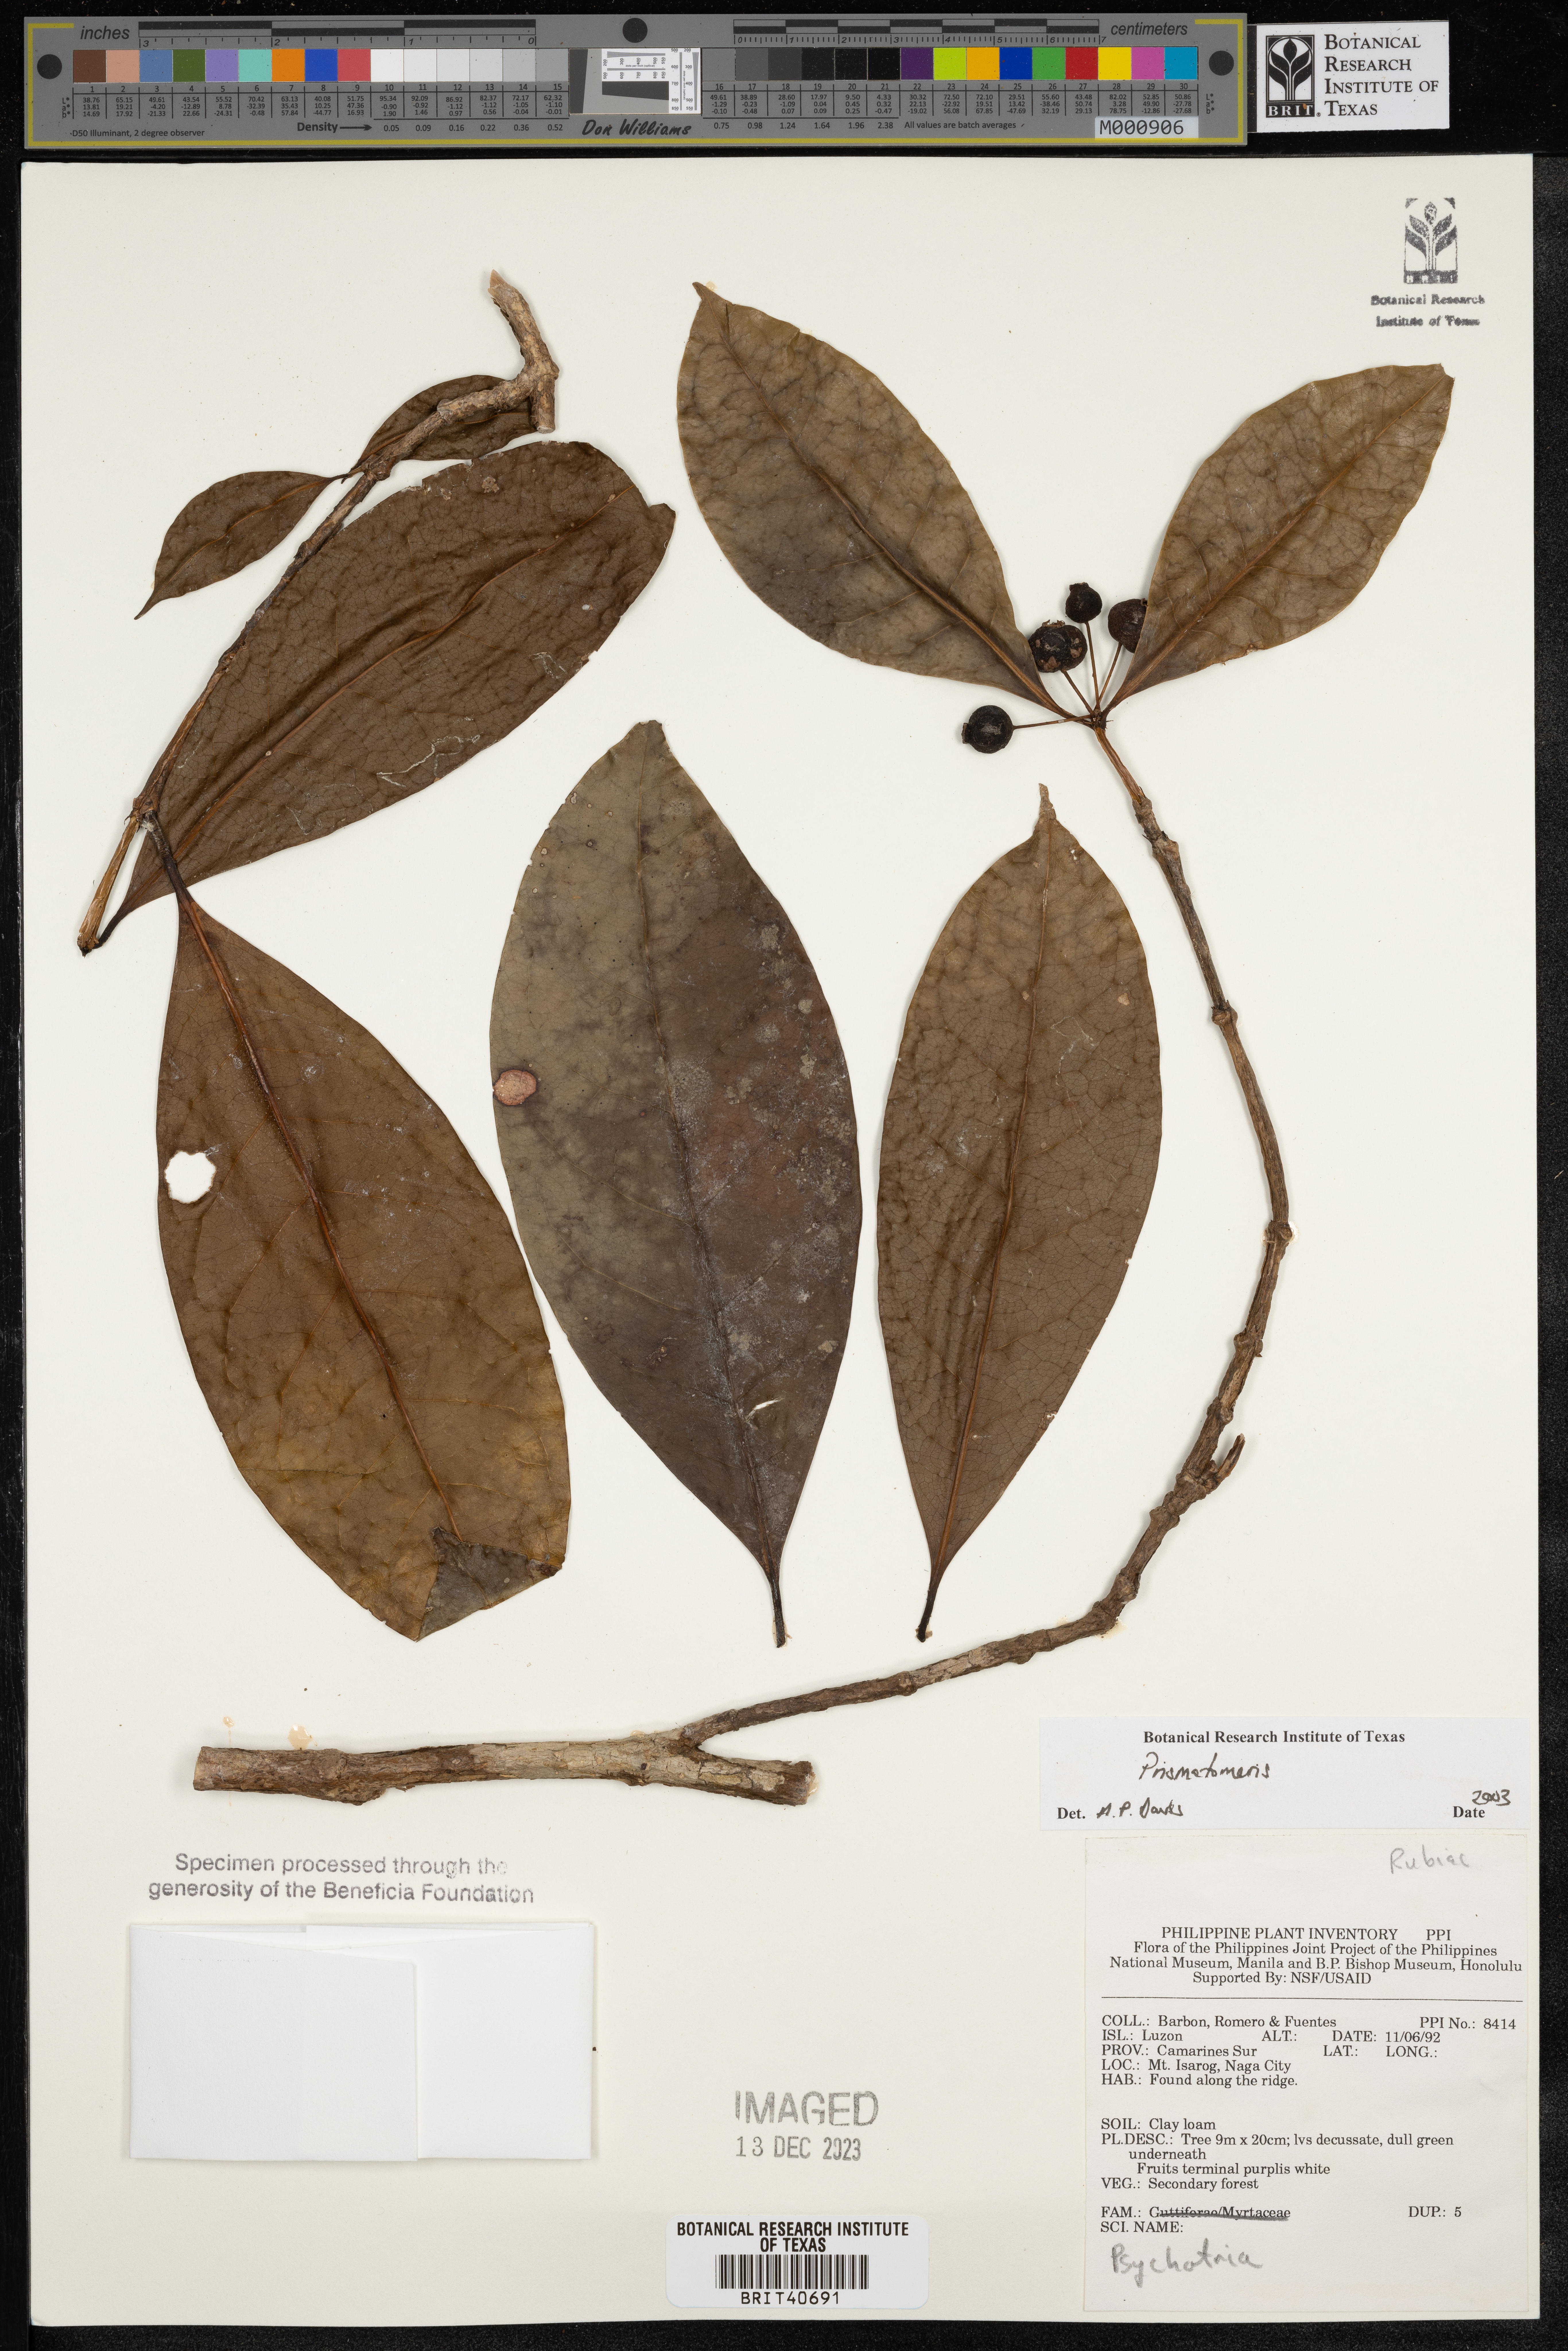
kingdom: Plantae
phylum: Tracheophyta
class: Magnoliopsida
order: Gentianales
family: Rubiaceae
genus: Prismatomeris
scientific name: Prismatomeris
